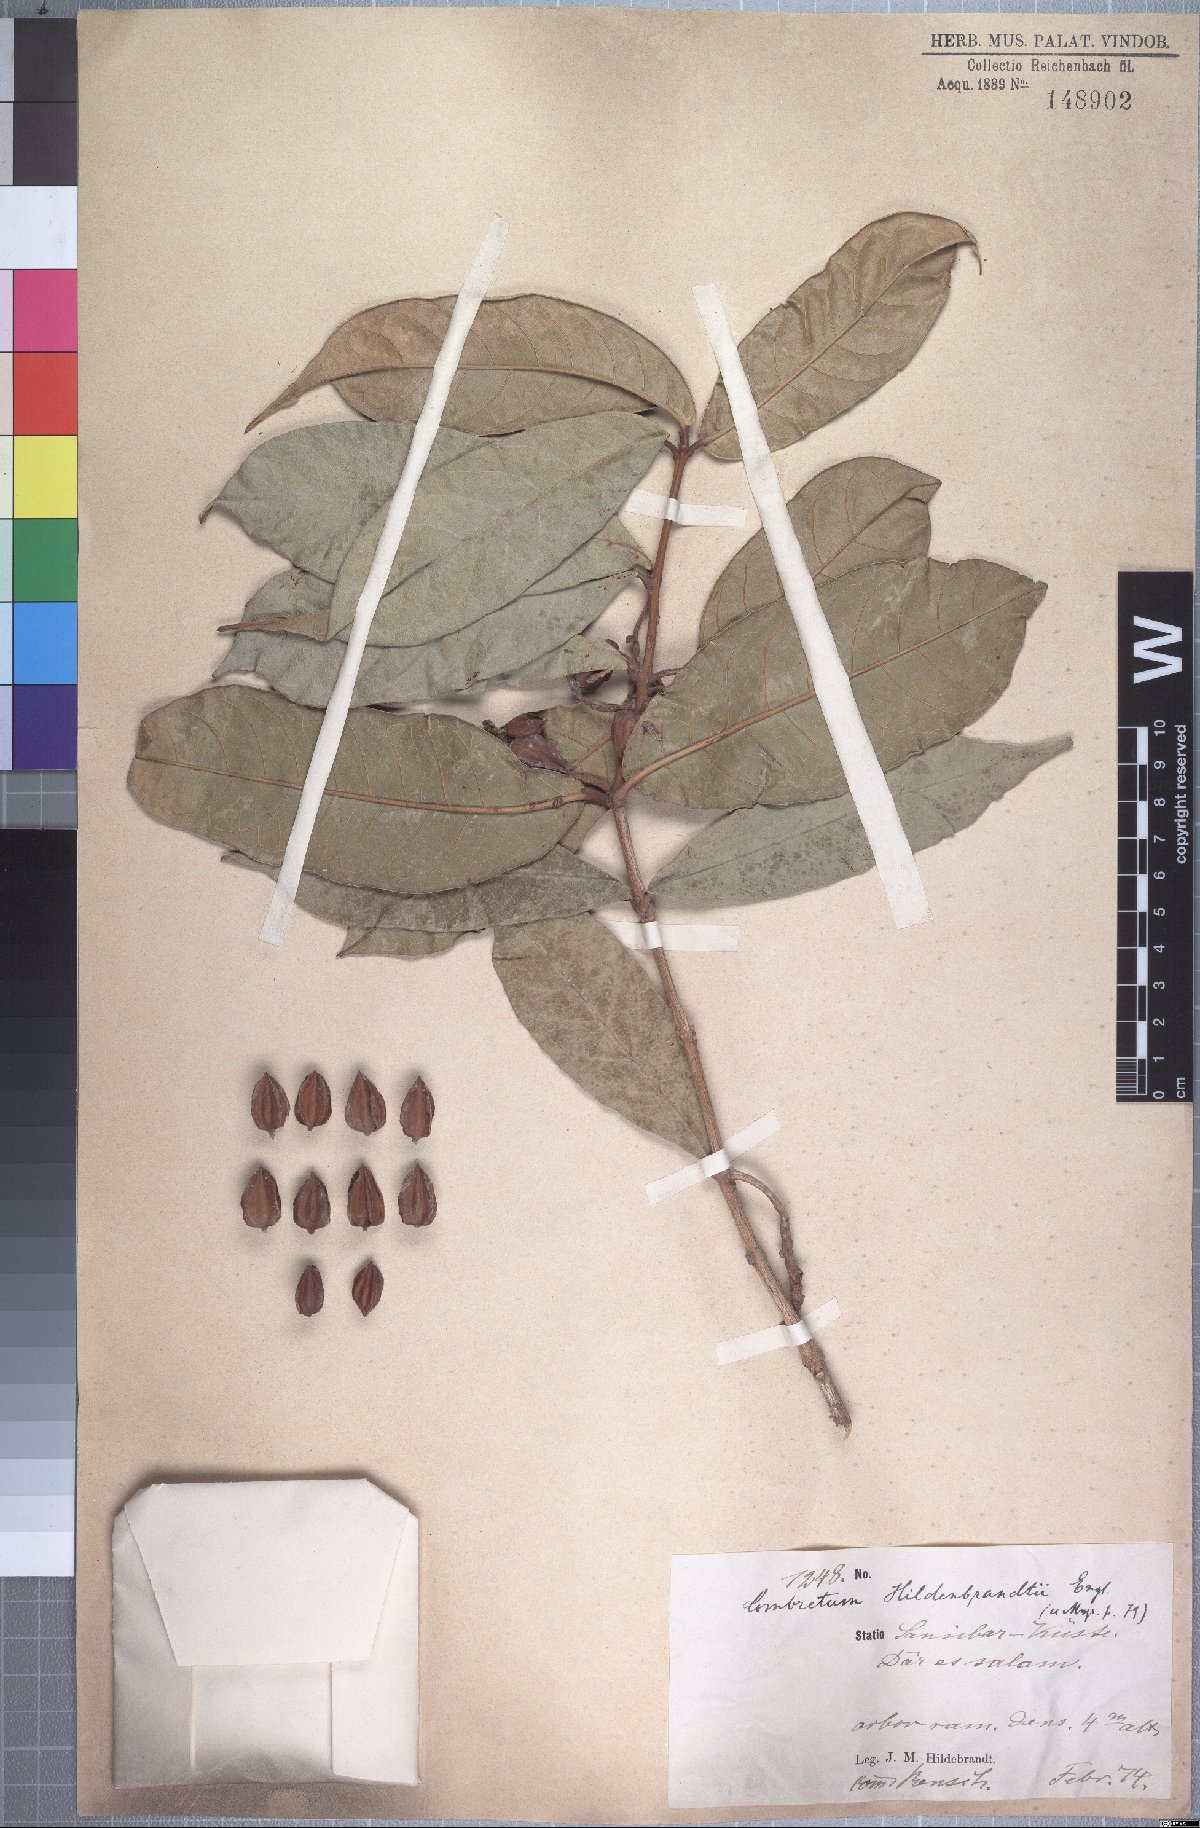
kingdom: Plantae
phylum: Tracheophyta
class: Magnoliopsida
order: Myrtales
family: Combretaceae
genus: Combretum
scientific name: Combretum iliairii
